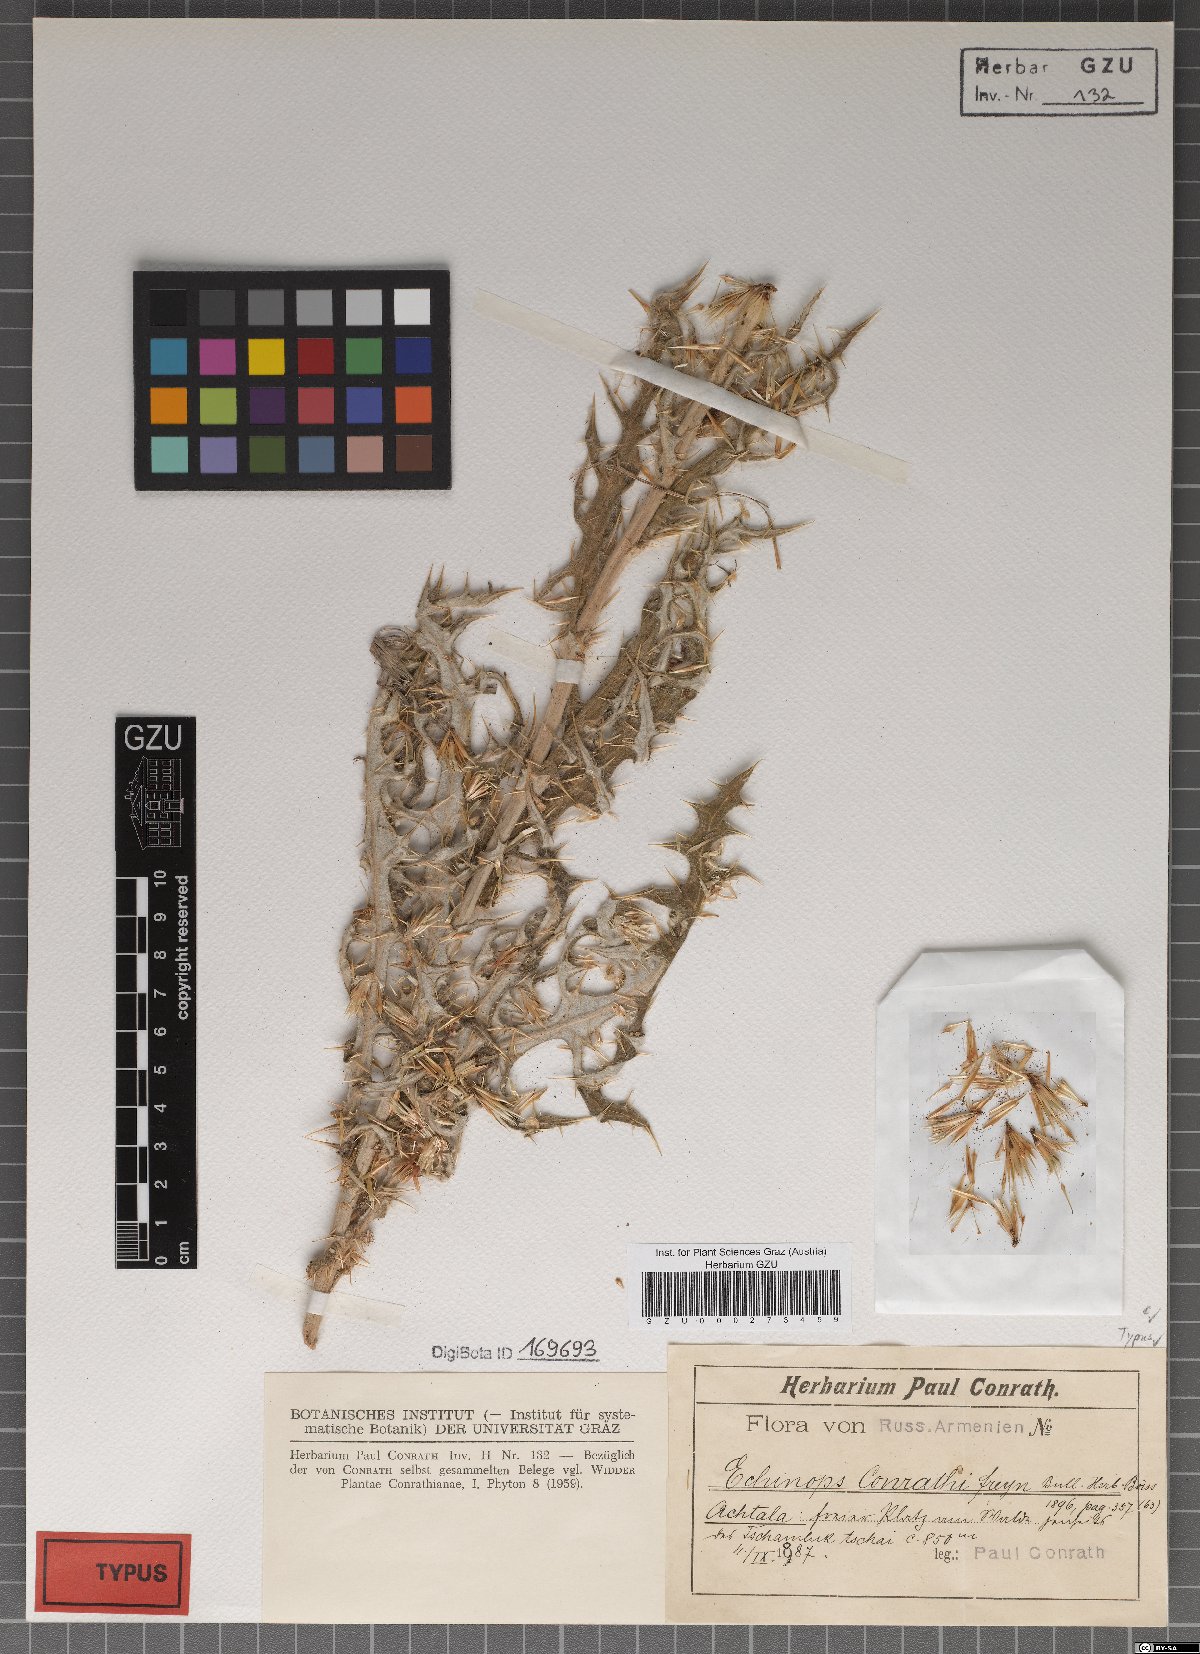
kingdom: Plantae
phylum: Tracheophyta
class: Magnoliopsida
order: Asterales
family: Asteraceae
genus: Echinops
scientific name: Echinops conrathii
